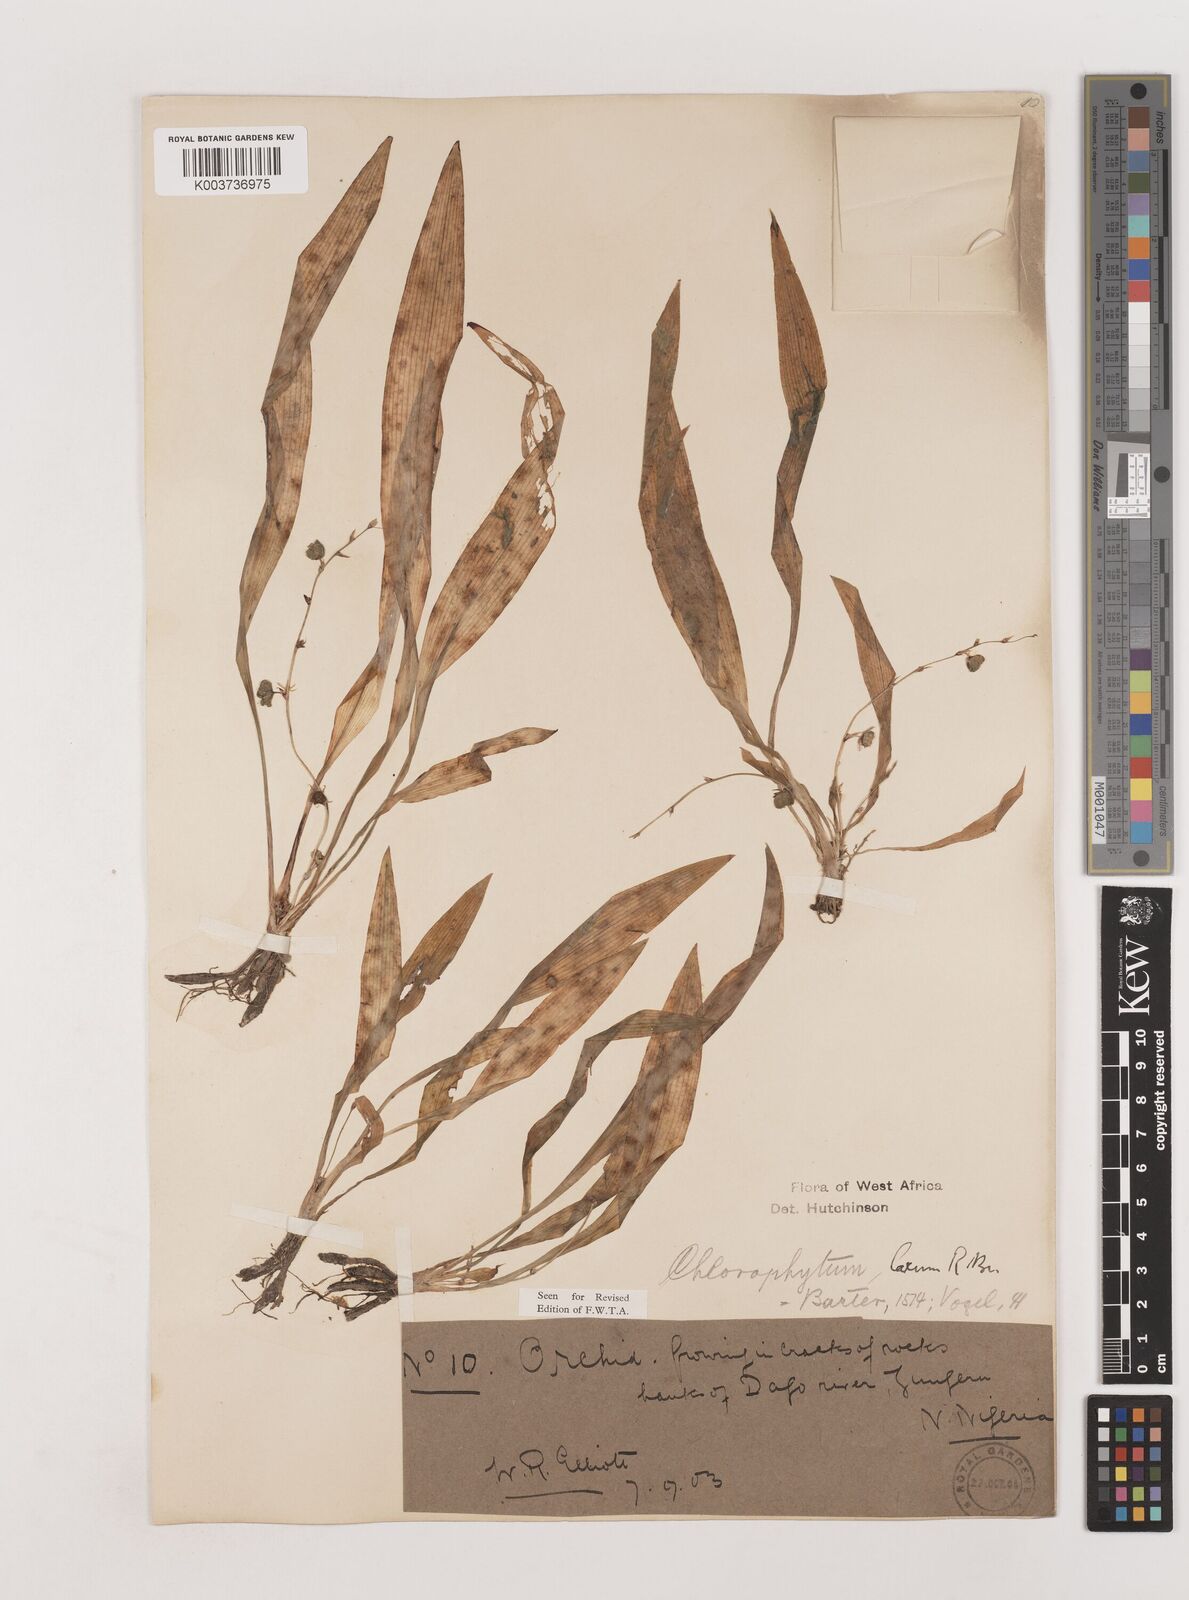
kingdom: Plantae
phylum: Tracheophyta
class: Liliopsida
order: Asparagales
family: Asparagaceae
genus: Chlorophytum
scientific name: Chlorophytum laxum
